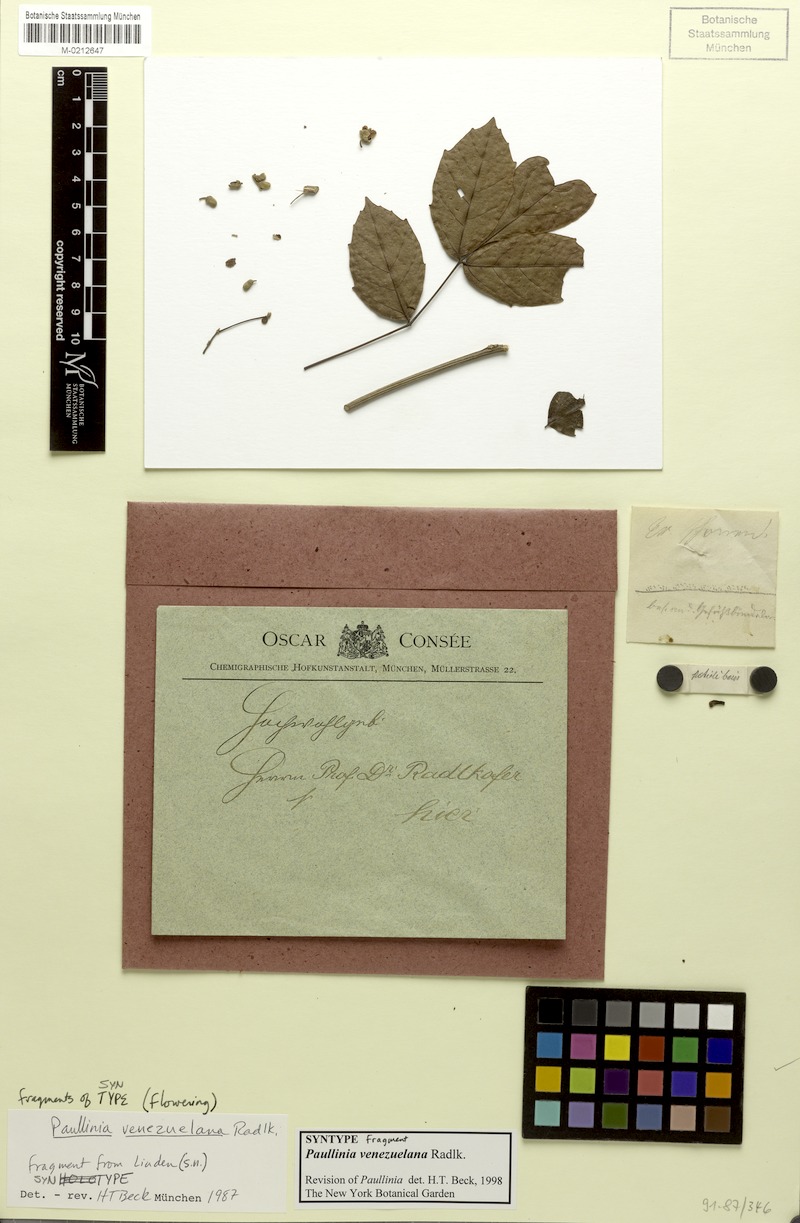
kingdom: Plantae
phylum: Tracheophyta
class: Magnoliopsida
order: Sapindales
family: Sapindaceae
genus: Paullinia
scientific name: Paullinia venezuelana
